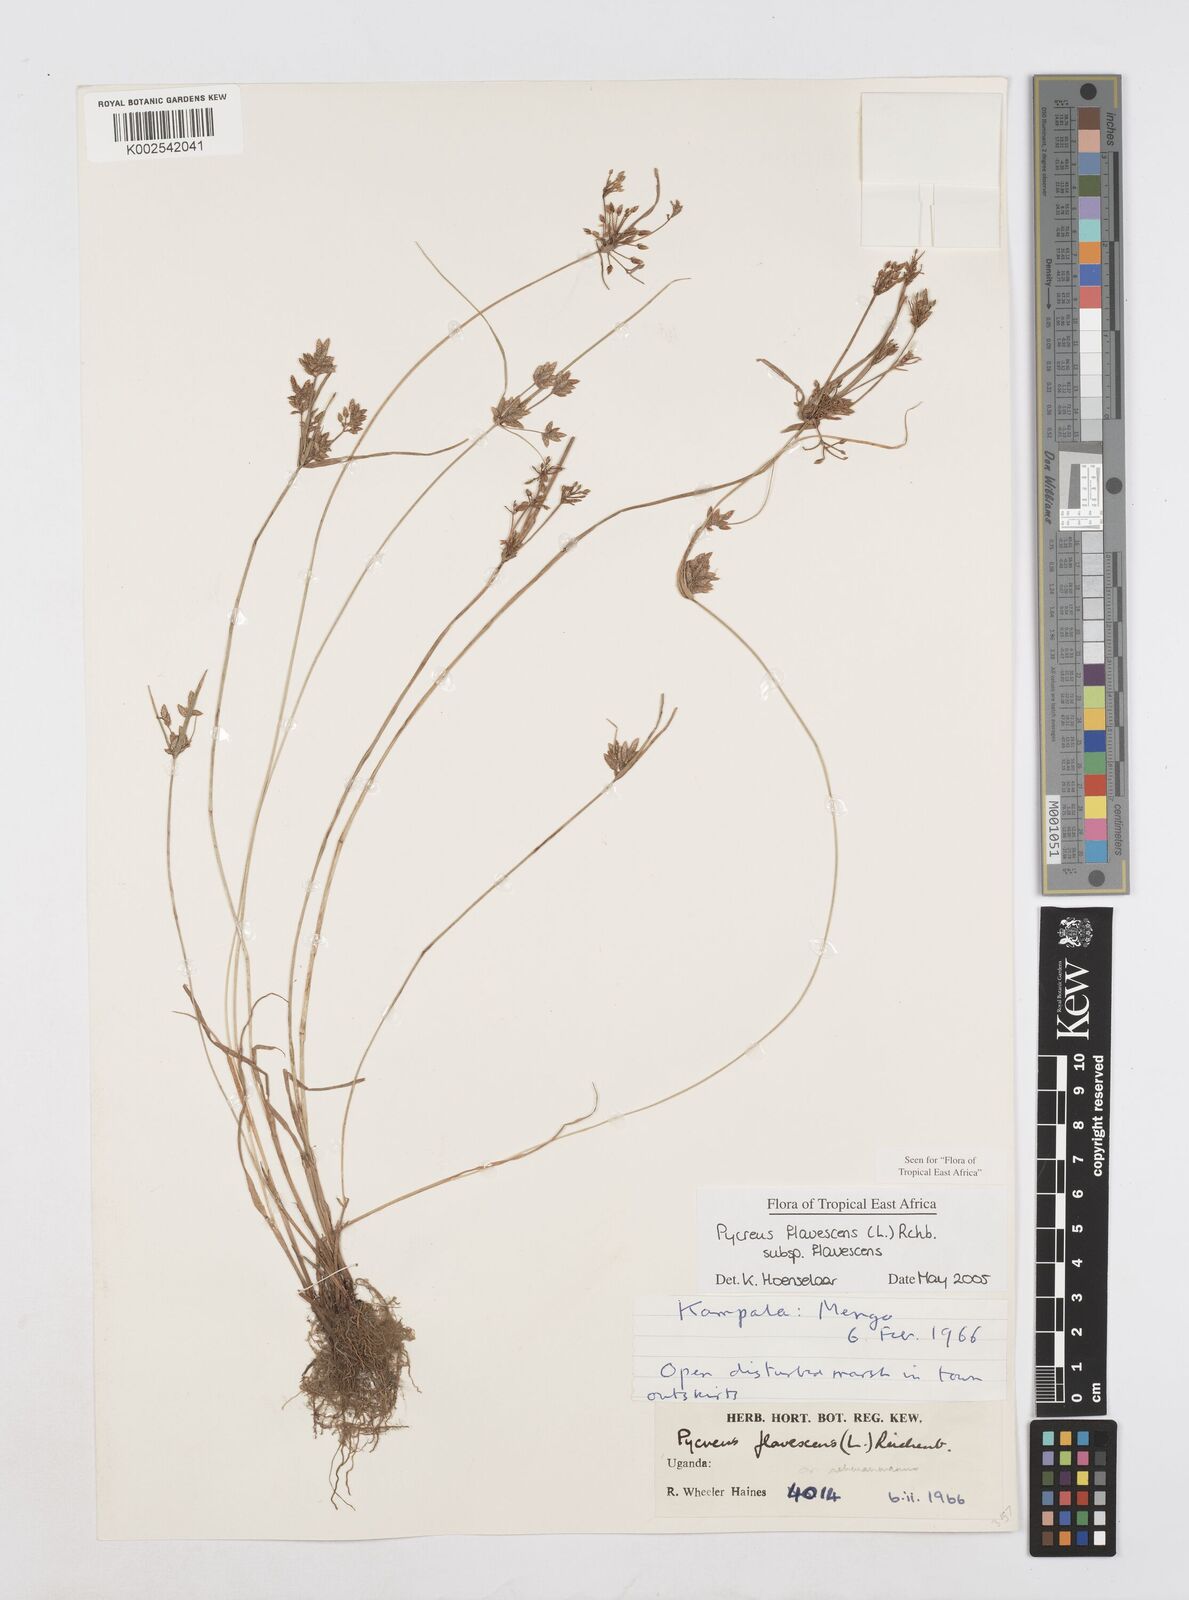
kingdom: Plantae
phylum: Tracheophyta
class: Liliopsida
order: Poales
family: Cyperaceae
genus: Cyperus
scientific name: Cyperus flavescens
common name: Yellow galingale
